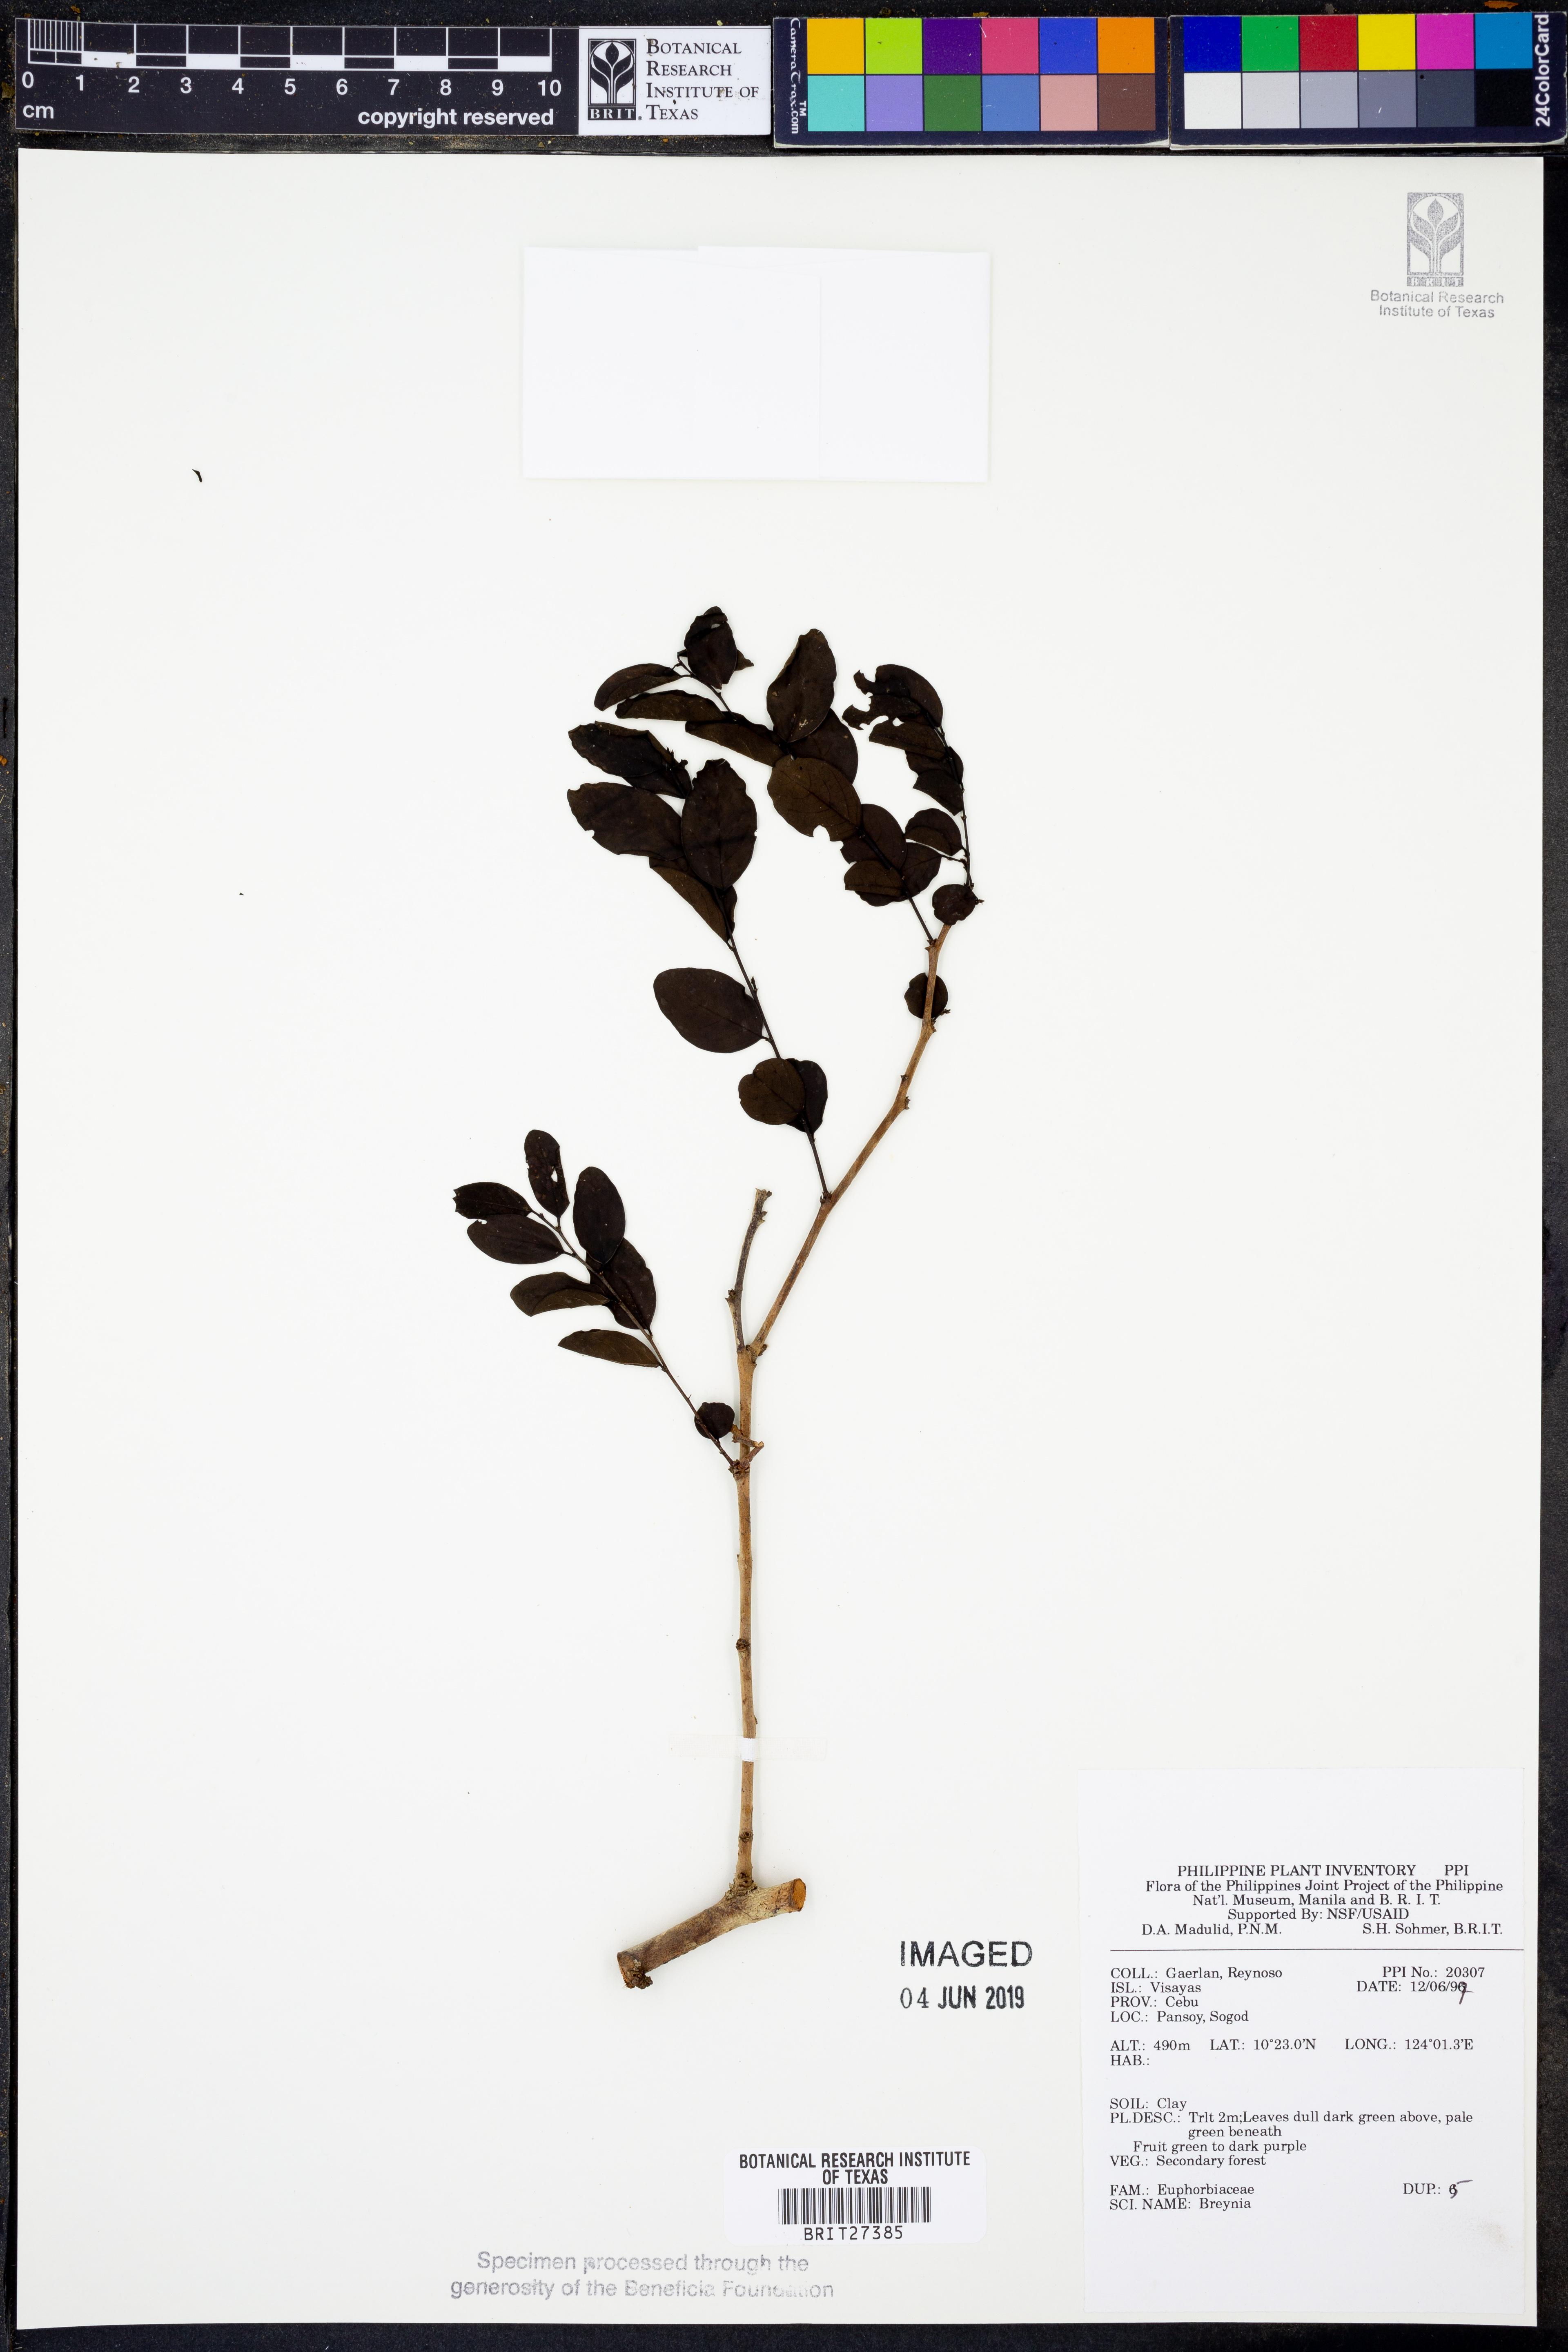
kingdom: Plantae
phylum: Tracheophyta
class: Magnoliopsida
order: Malpighiales
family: Phyllanthaceae
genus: Breynia
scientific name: Breynia
